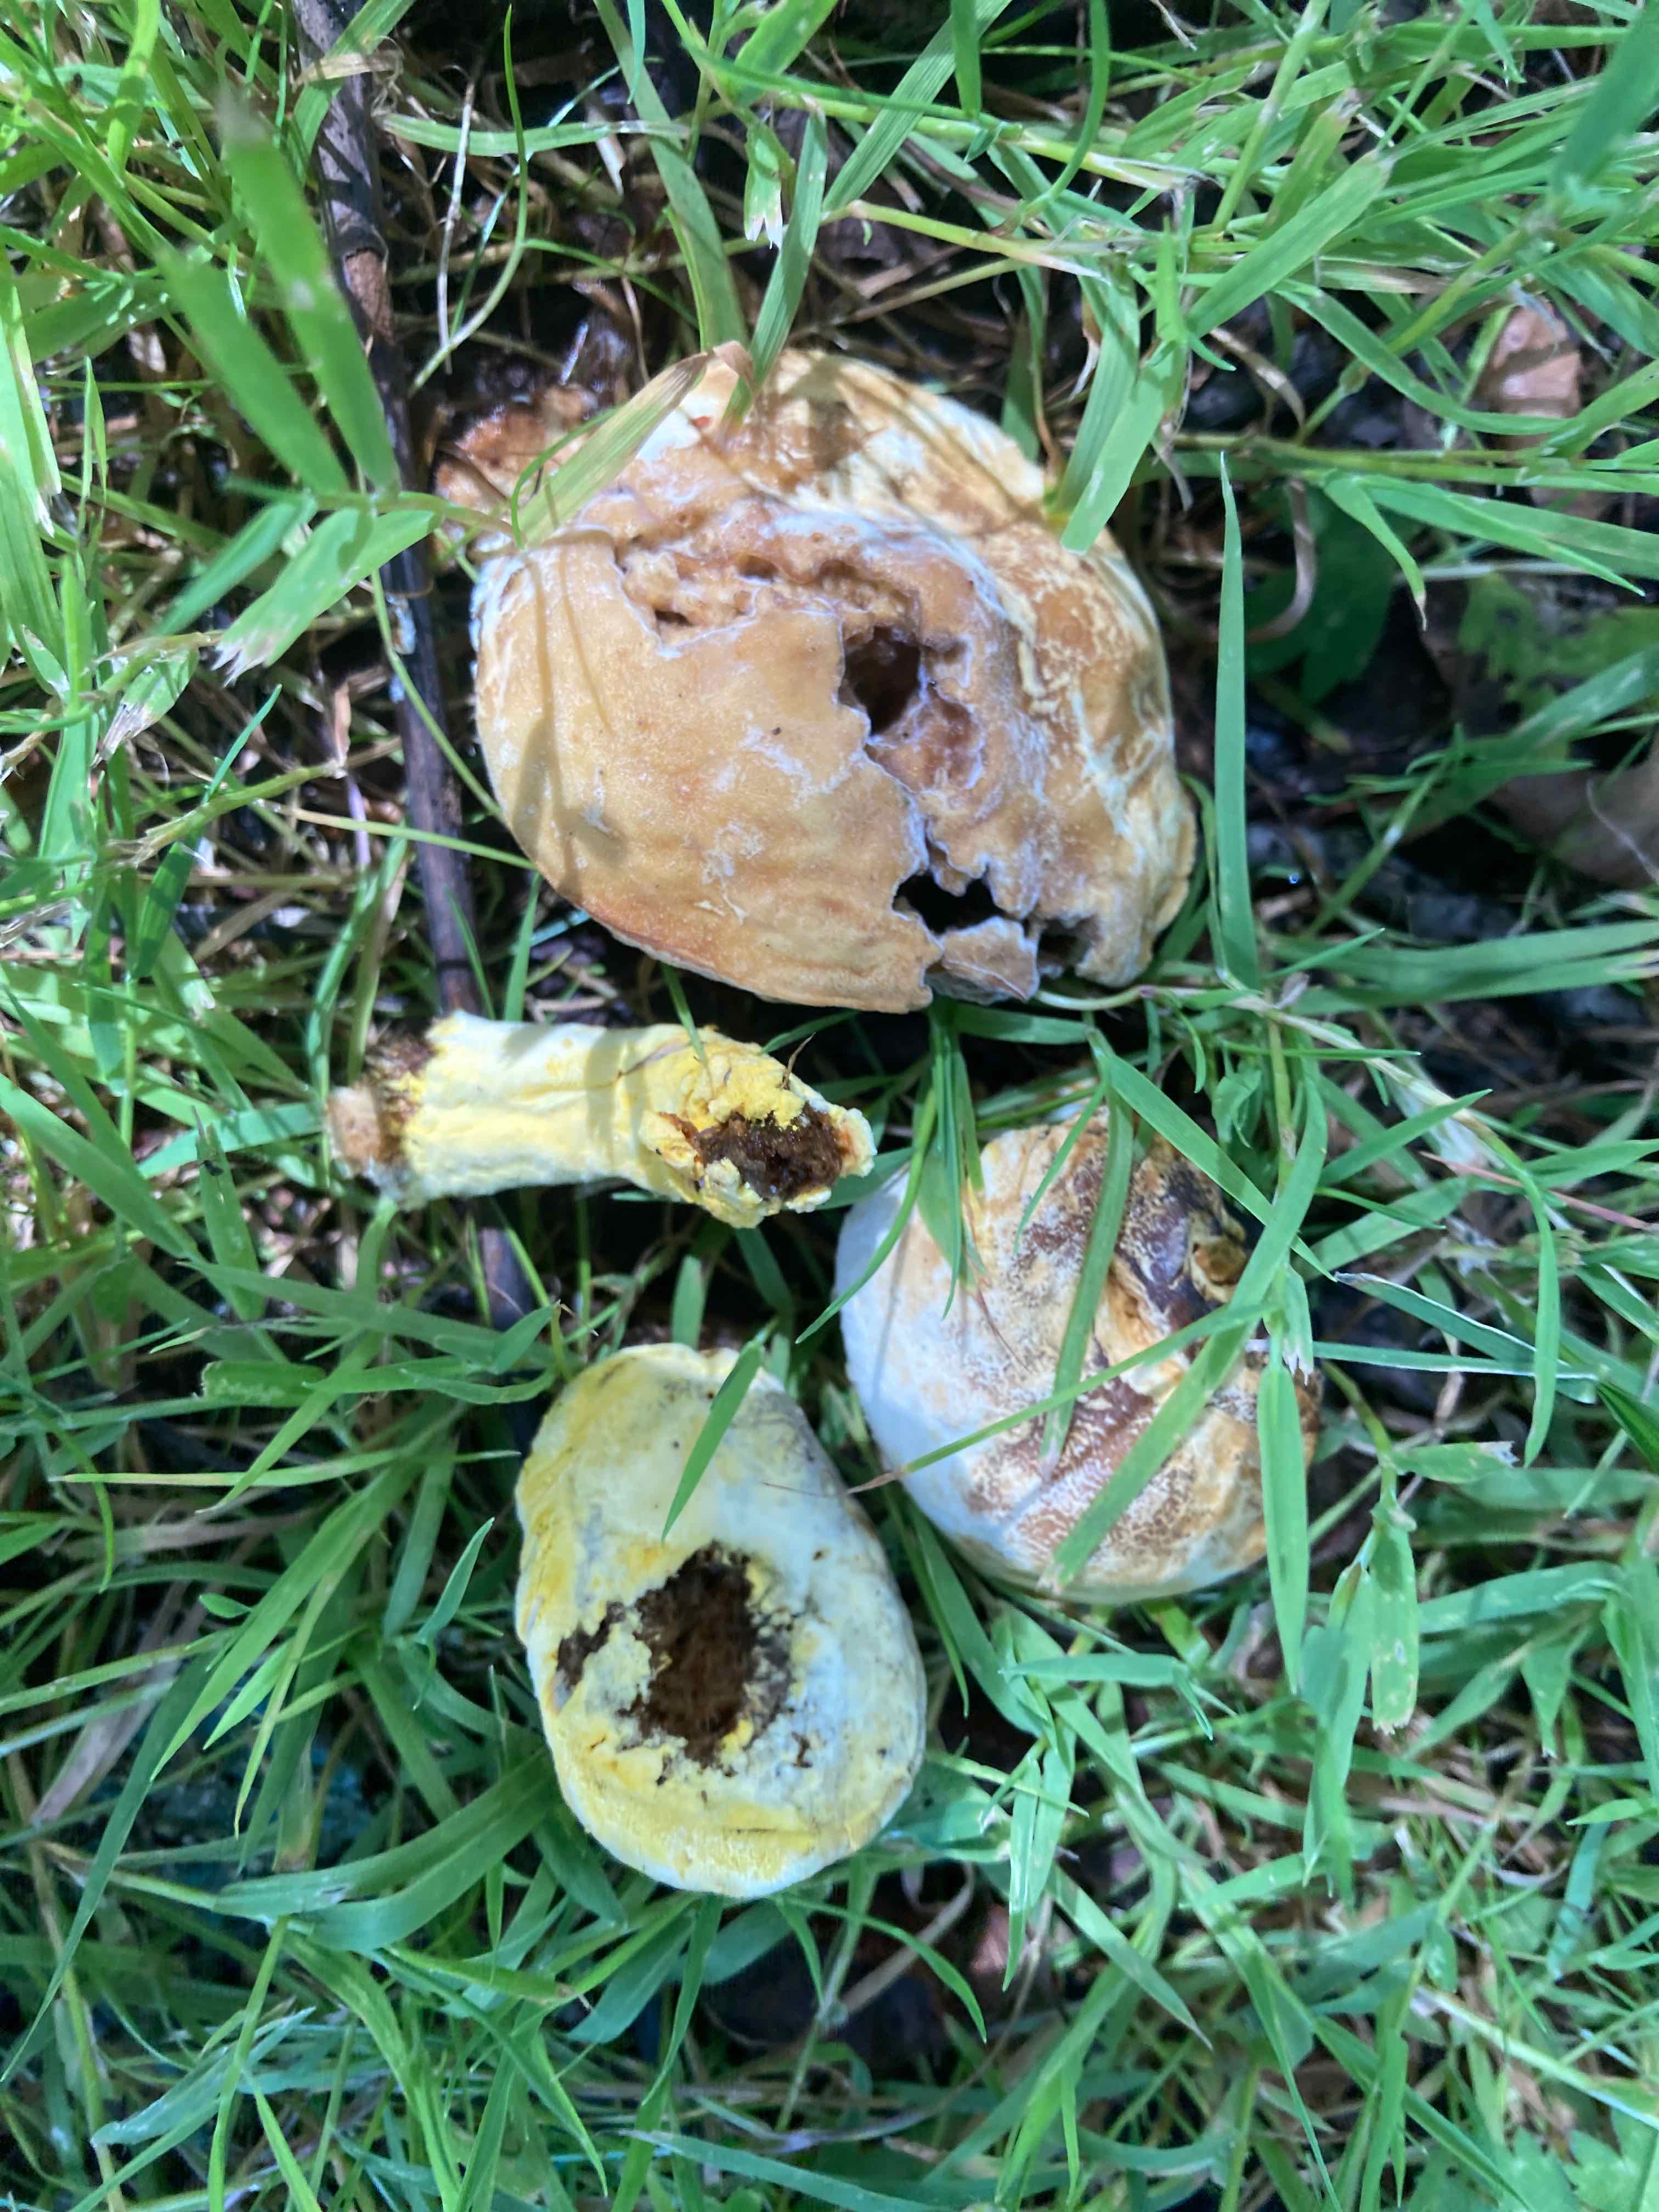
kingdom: Fungi
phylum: Ascomycota
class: Sordariomycetes
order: Hypocreales
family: Hypocreaceae
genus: Hypomyces
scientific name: Hypomyces microspermus
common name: dværgrørhat-snylteskorpe
